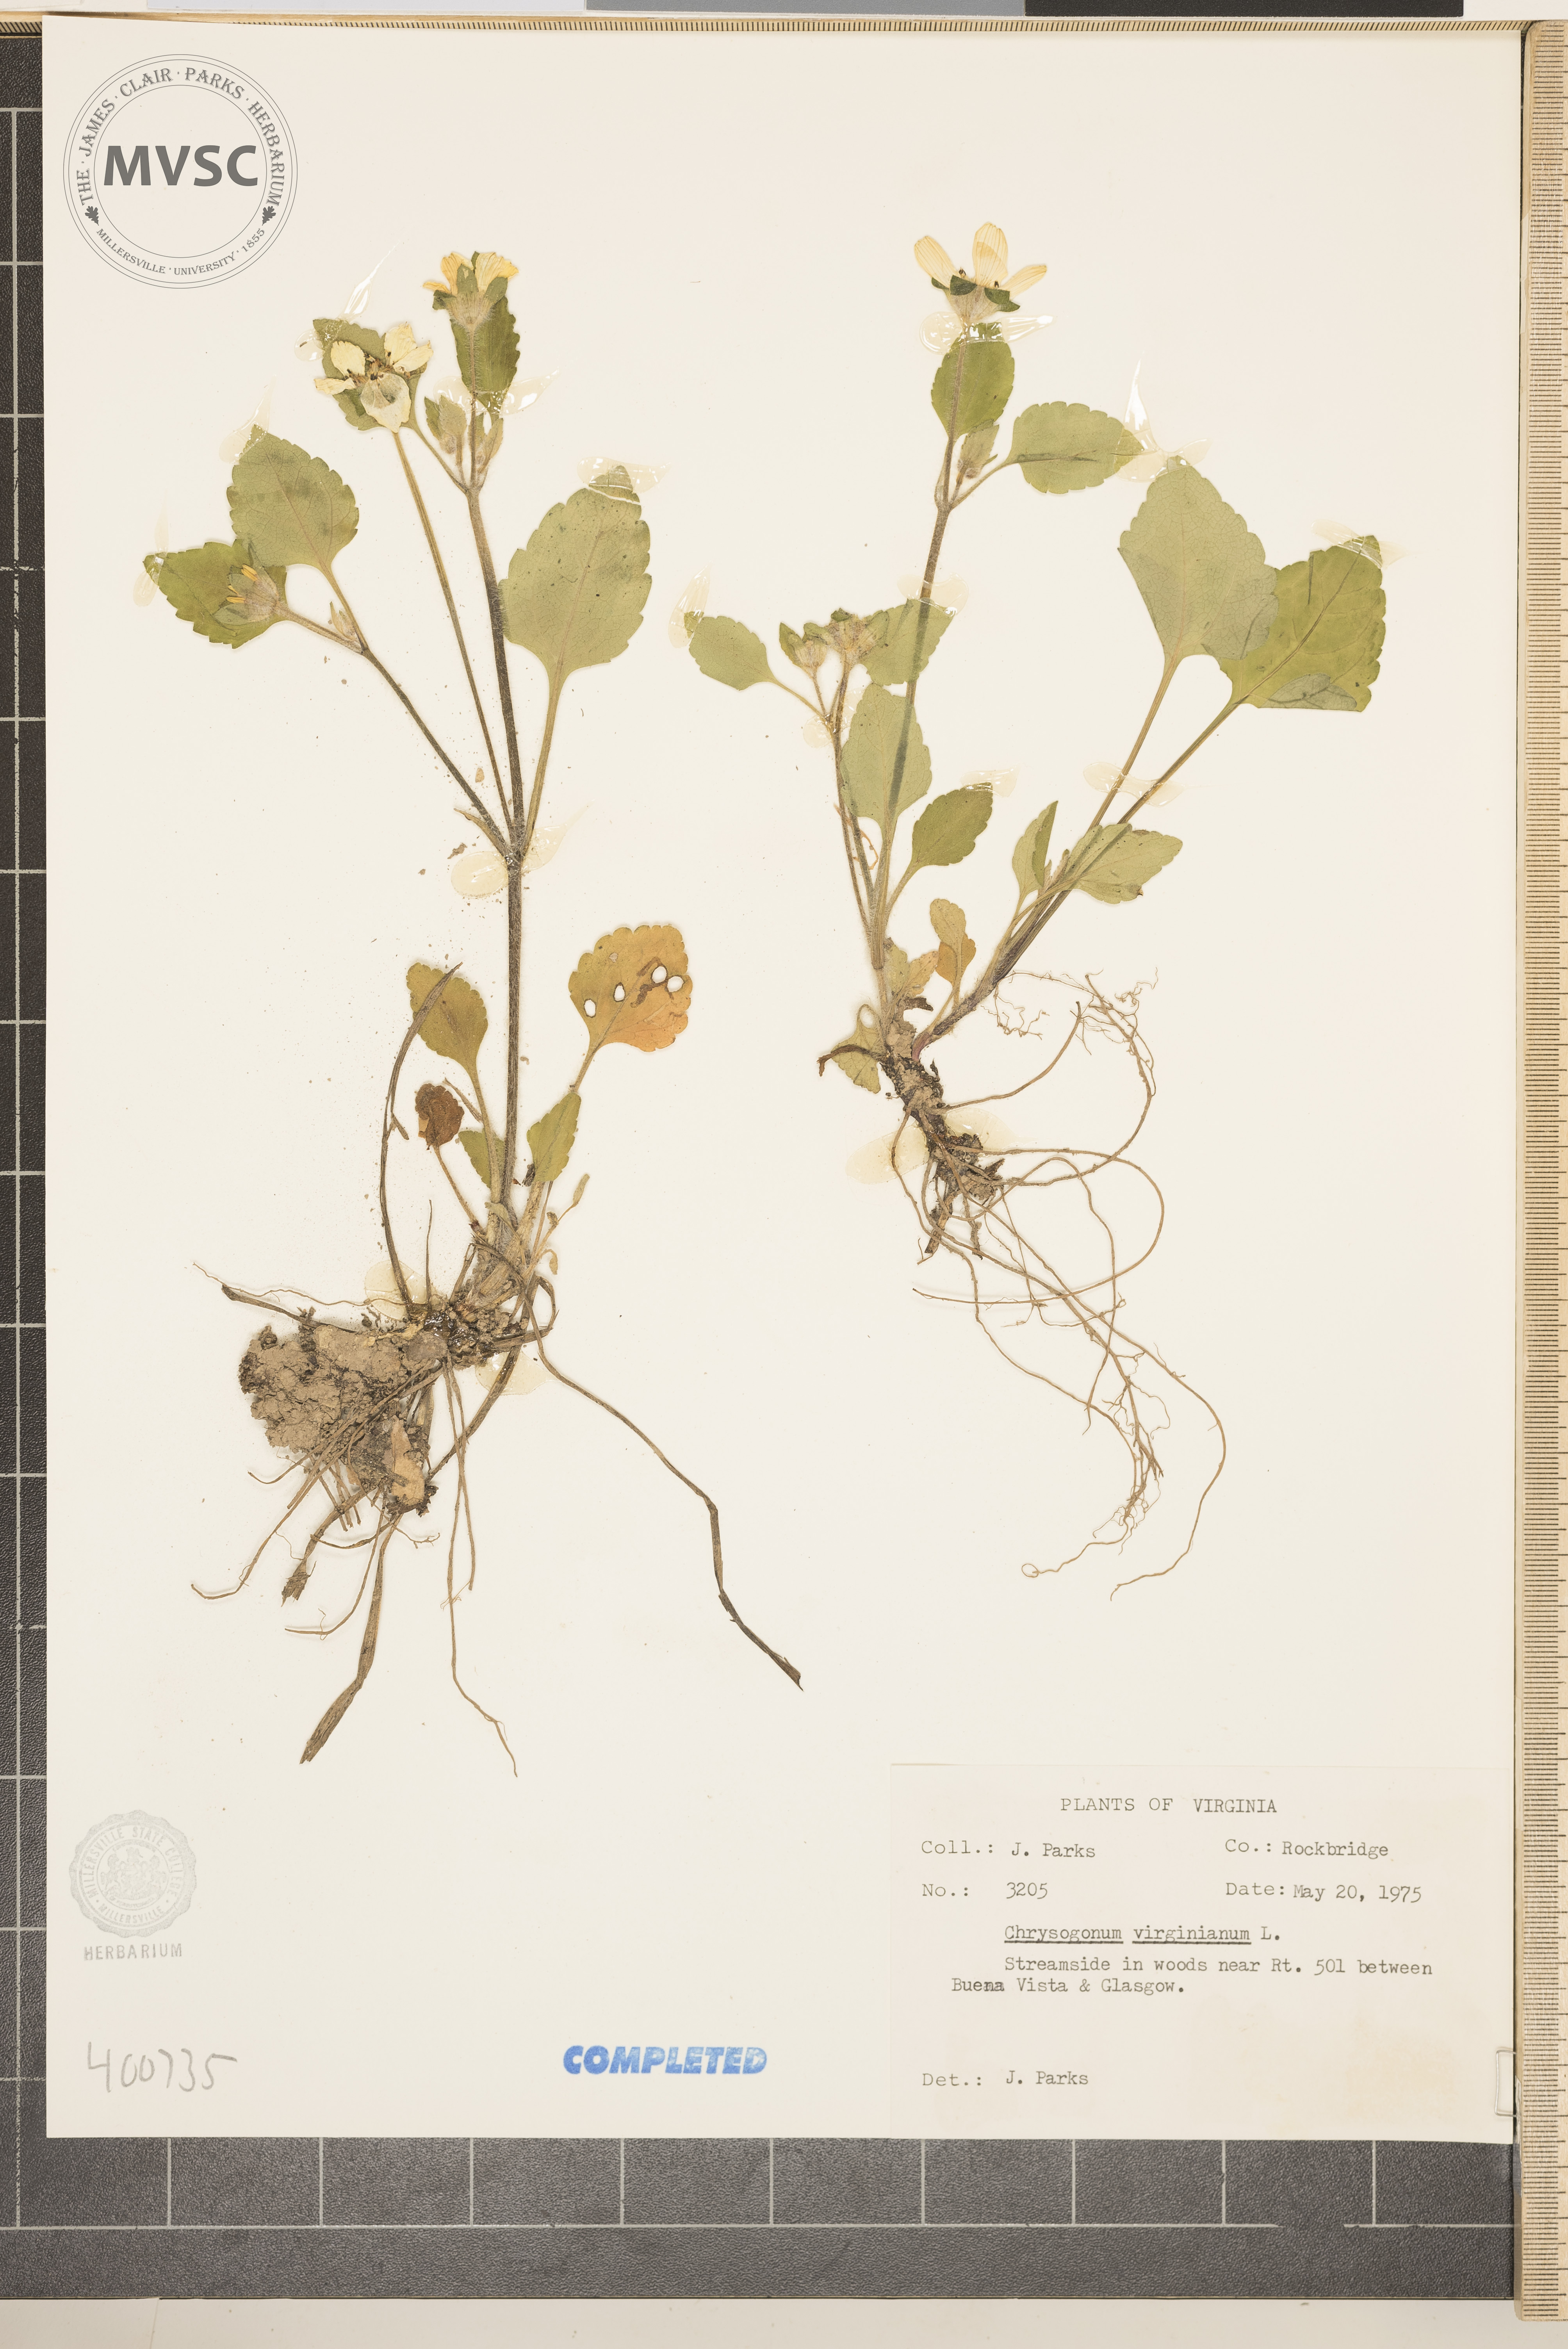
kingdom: Plantae
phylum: Tracheophyta
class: Magnoliopsida
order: Asterales
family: Asteraceae
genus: Chrysogonum
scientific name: Chrysogonum virginianum
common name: Golden-knee
